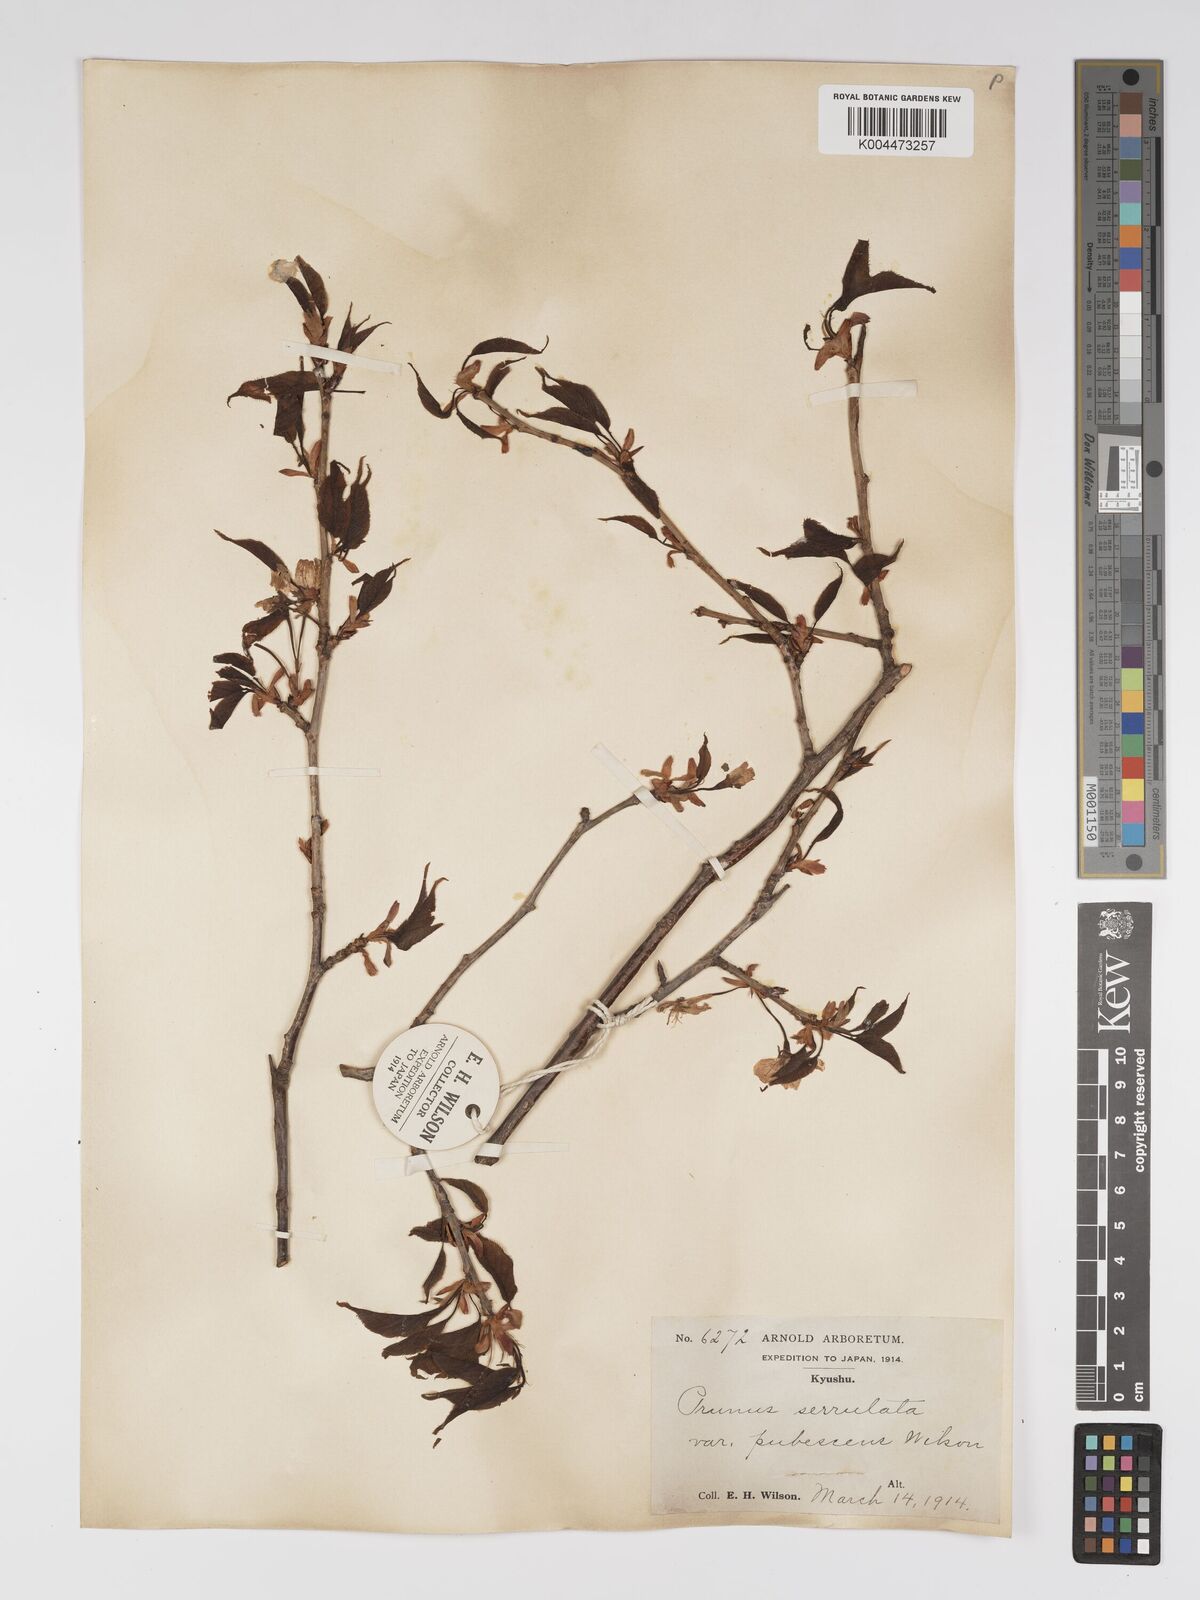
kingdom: Plantae
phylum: Tracheophyta
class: Magnoliopsida
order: Rosales
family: Rosaceae
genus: Prunus
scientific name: Prunus serrulata
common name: Japanese cherry
